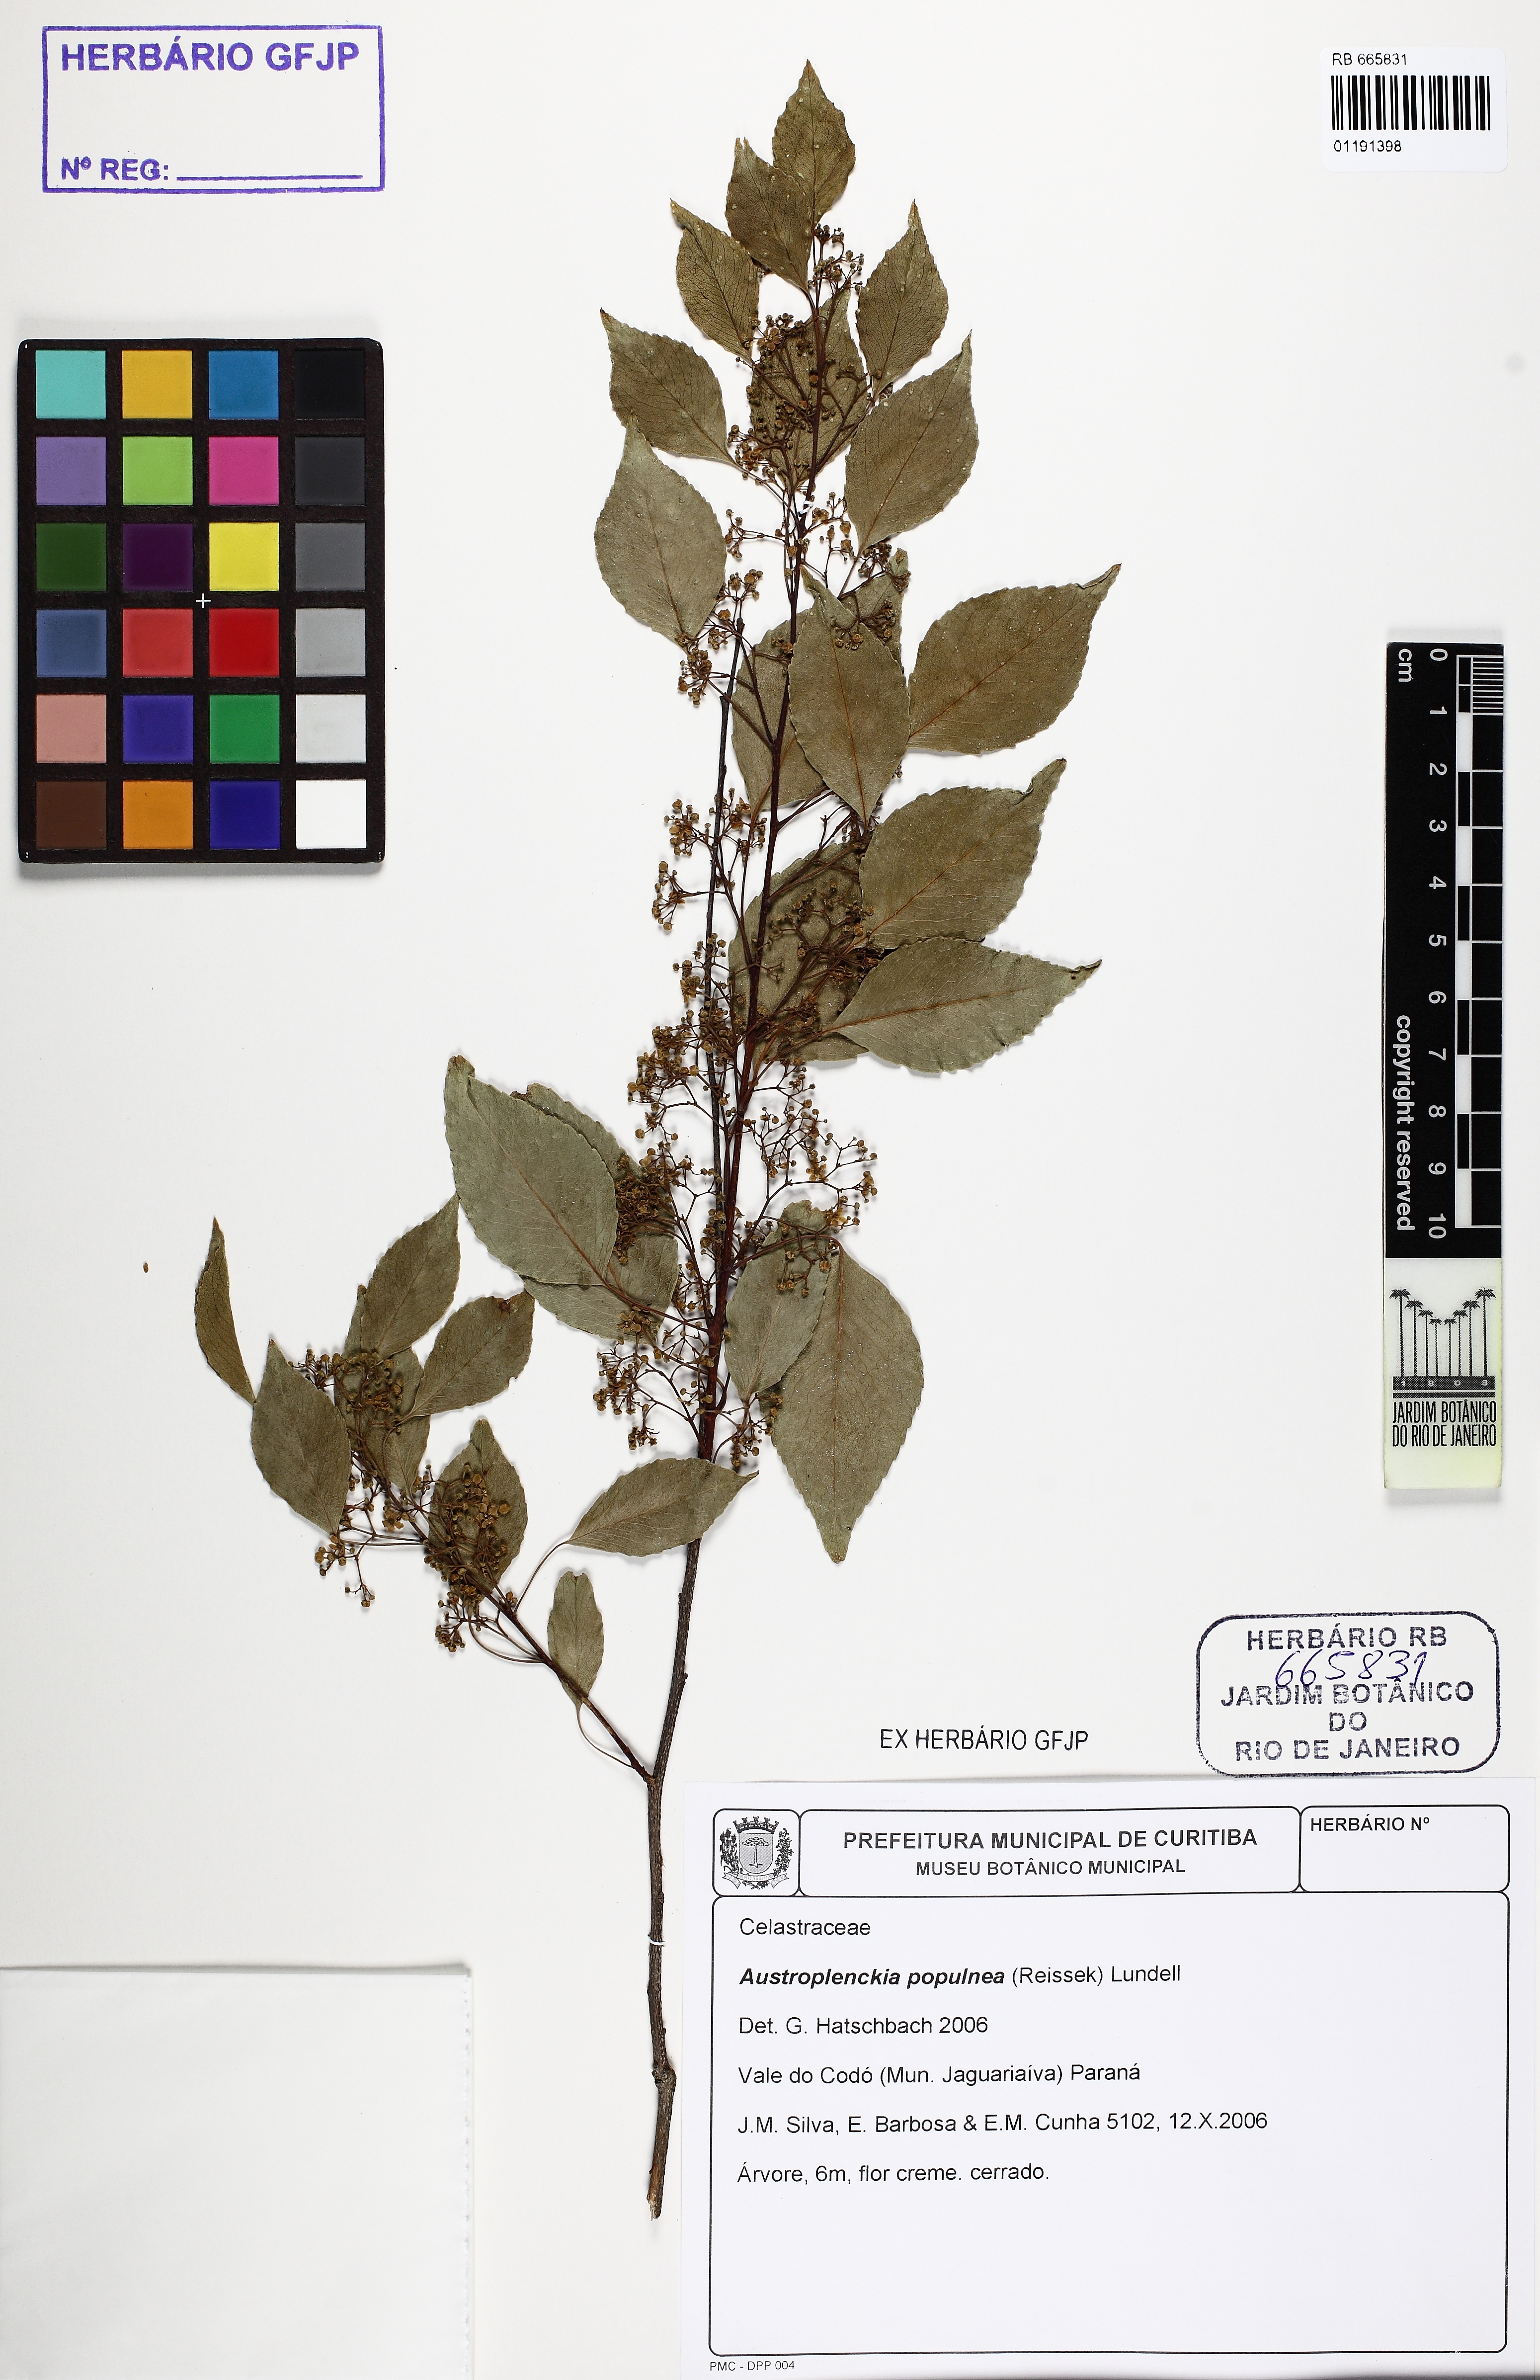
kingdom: Plantae
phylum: Tracheophyta
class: Magnoliopsida
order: Celastrales
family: Celastraceae
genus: Plenckia
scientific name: Plenckia populnea
